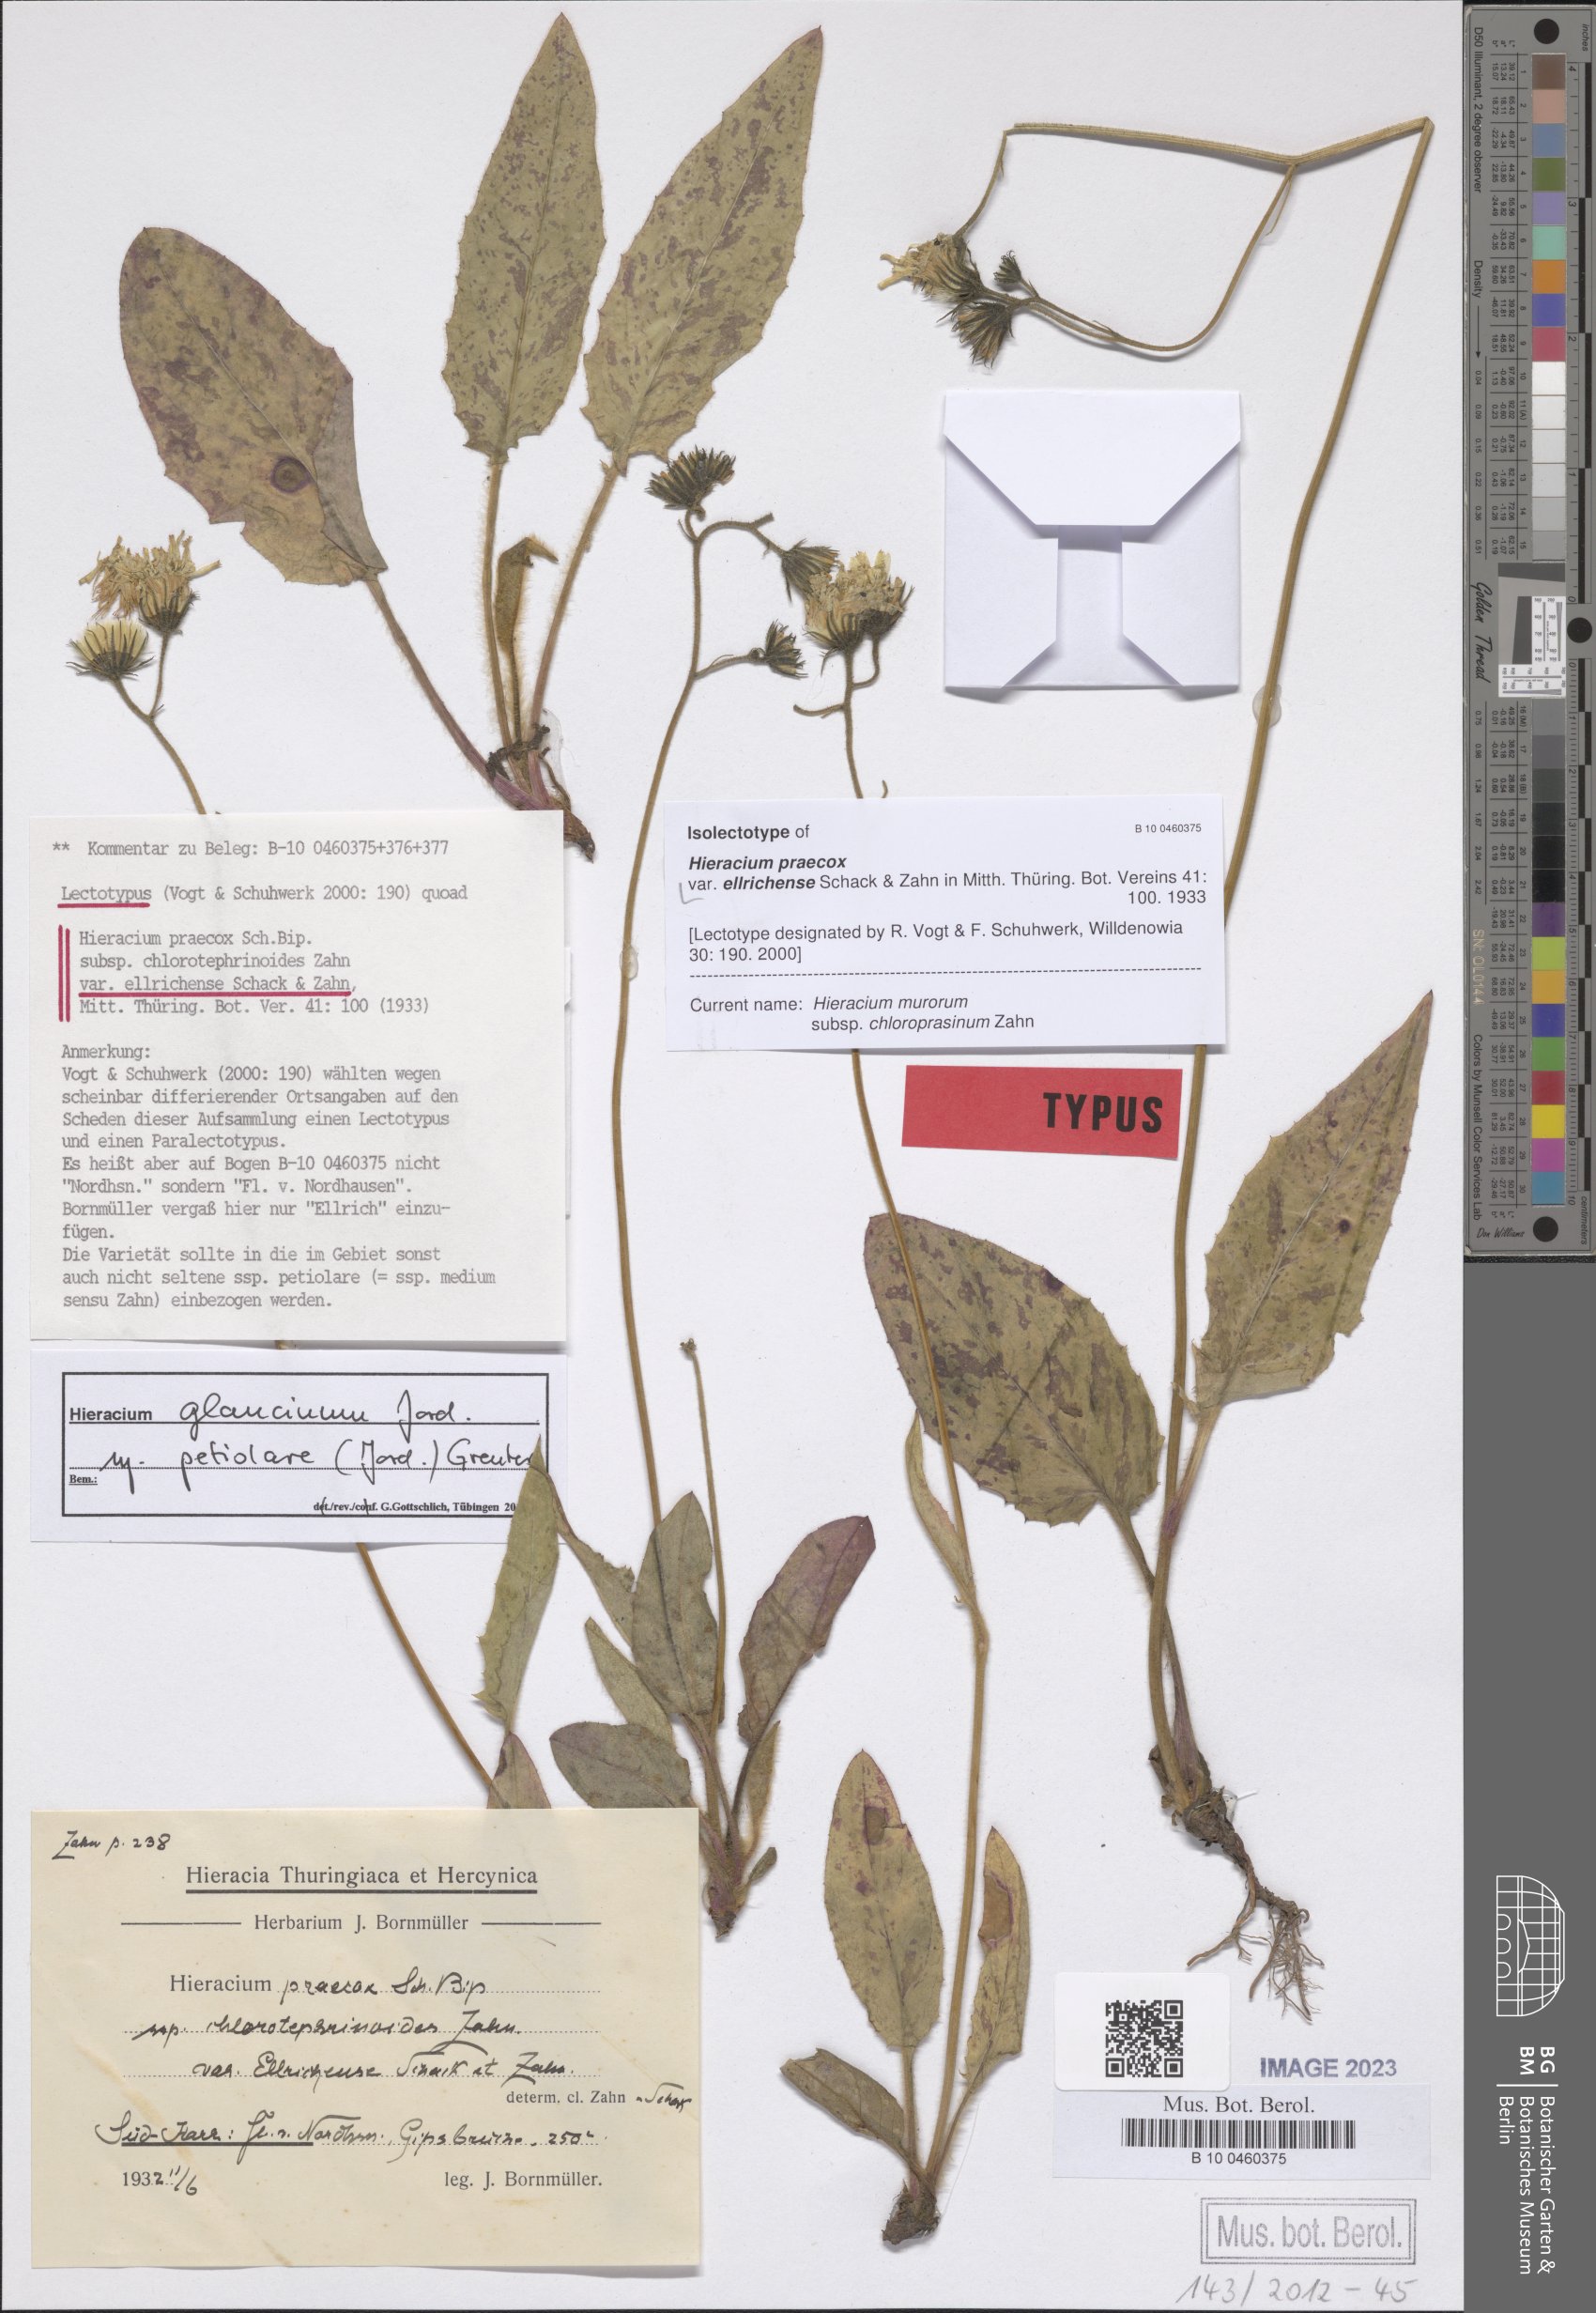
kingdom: Plantae
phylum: Tracheophyta
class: Magnoliopsida
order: Asterales
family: Asteraceae
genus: Hieracium
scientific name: Hieracium praecox
